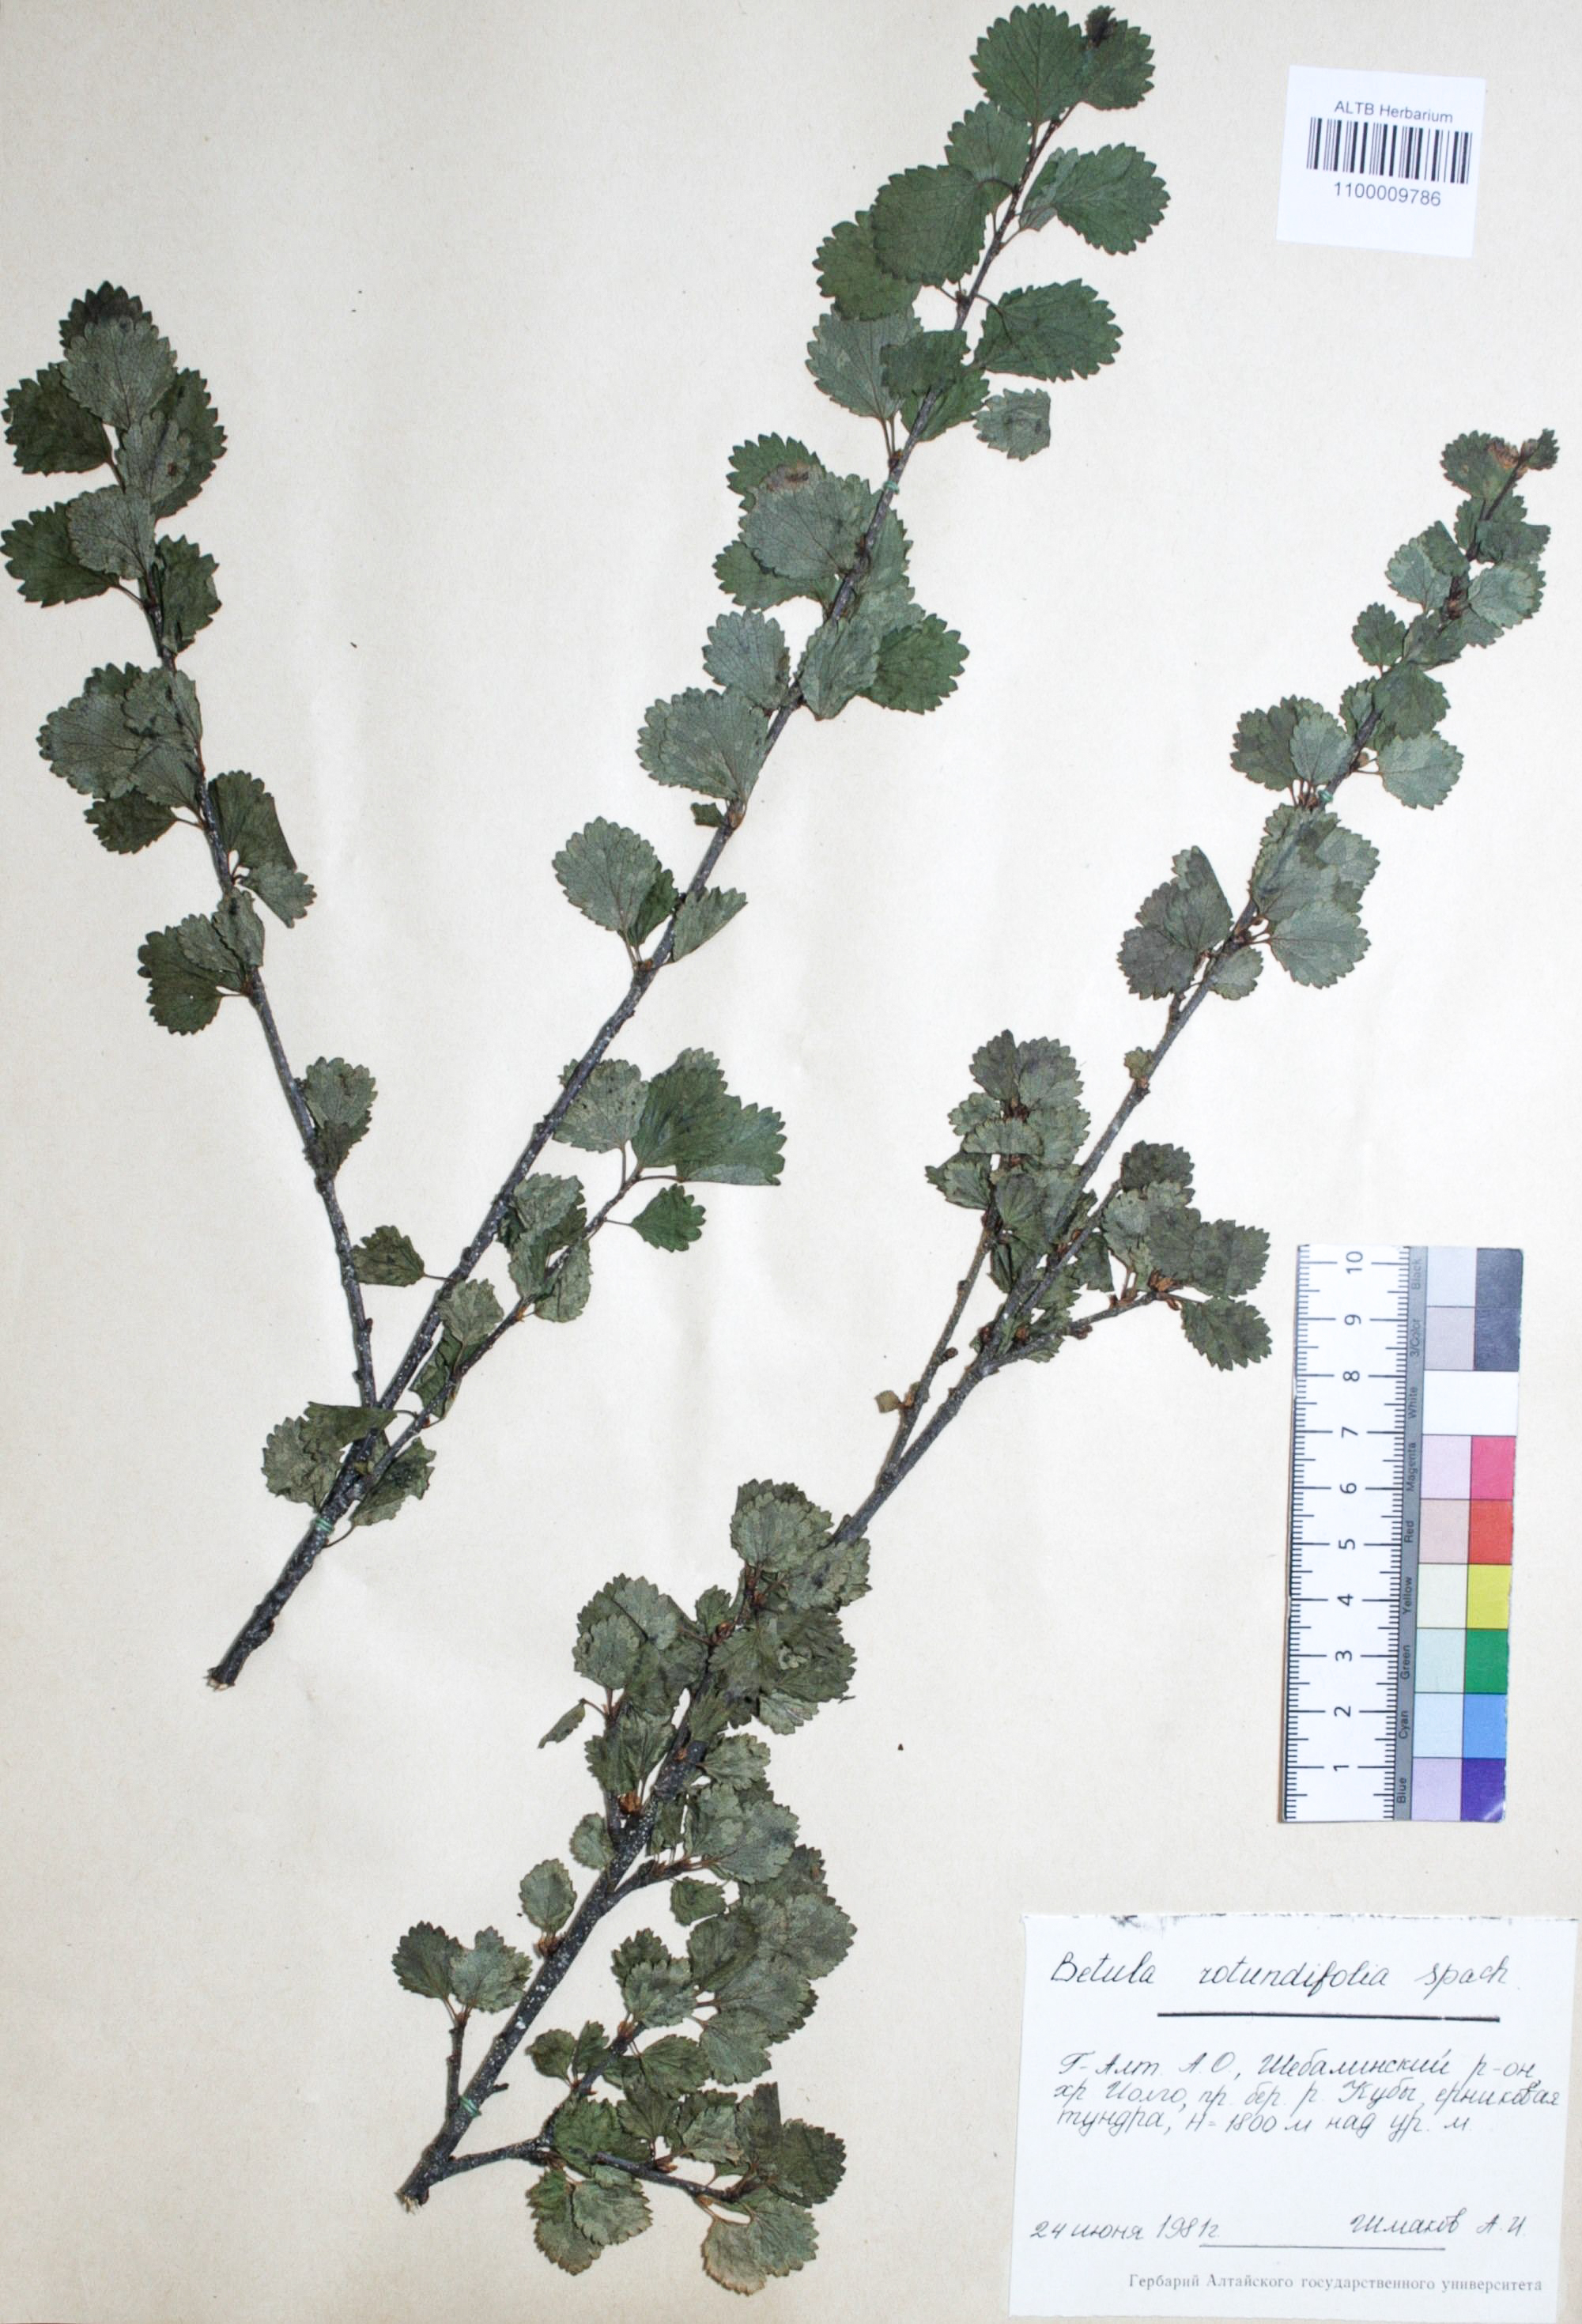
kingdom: Plantae
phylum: Tracheophyta
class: Magnoliopsida
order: Fagales
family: Betulaceae
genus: Betula
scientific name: Betula glandulosa
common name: Dwarf birch
